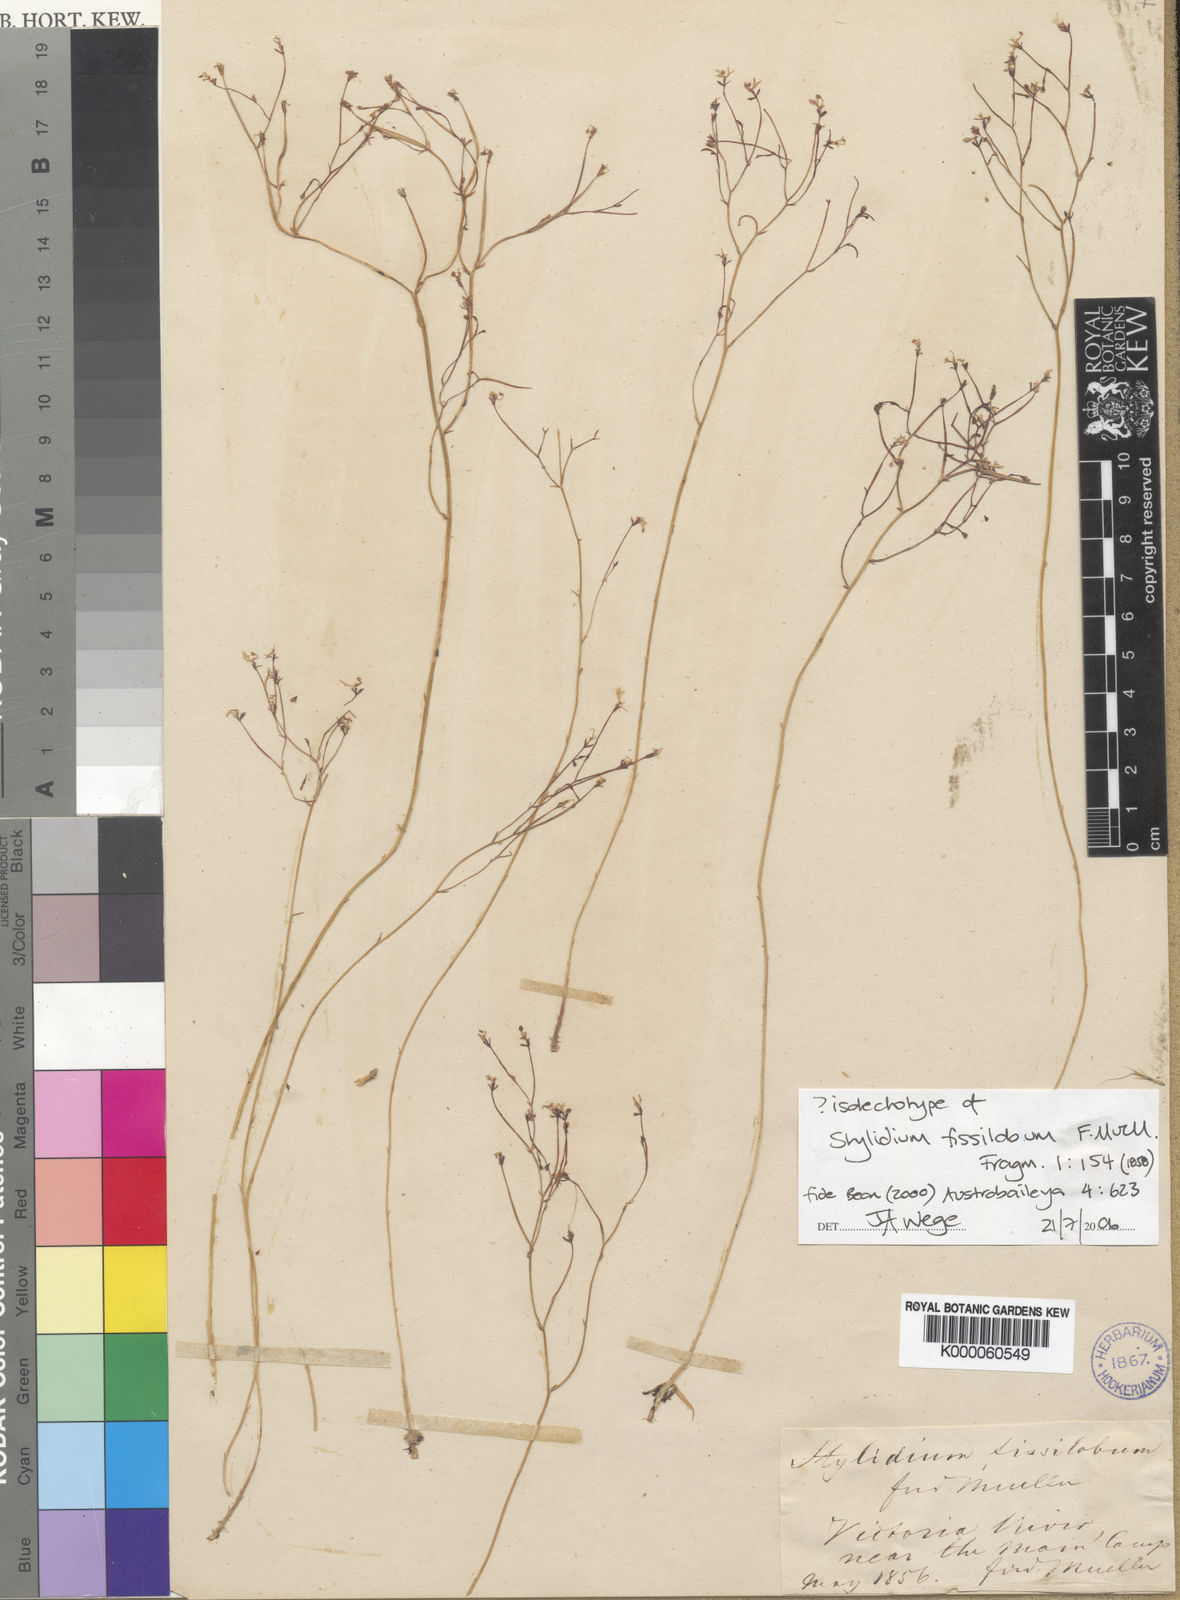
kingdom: Plantae
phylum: Tracheophyta
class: Magnoliopsida
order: Asterales
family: Stylidiaceae
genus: Stylidium
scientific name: Stylidium fissilobium
